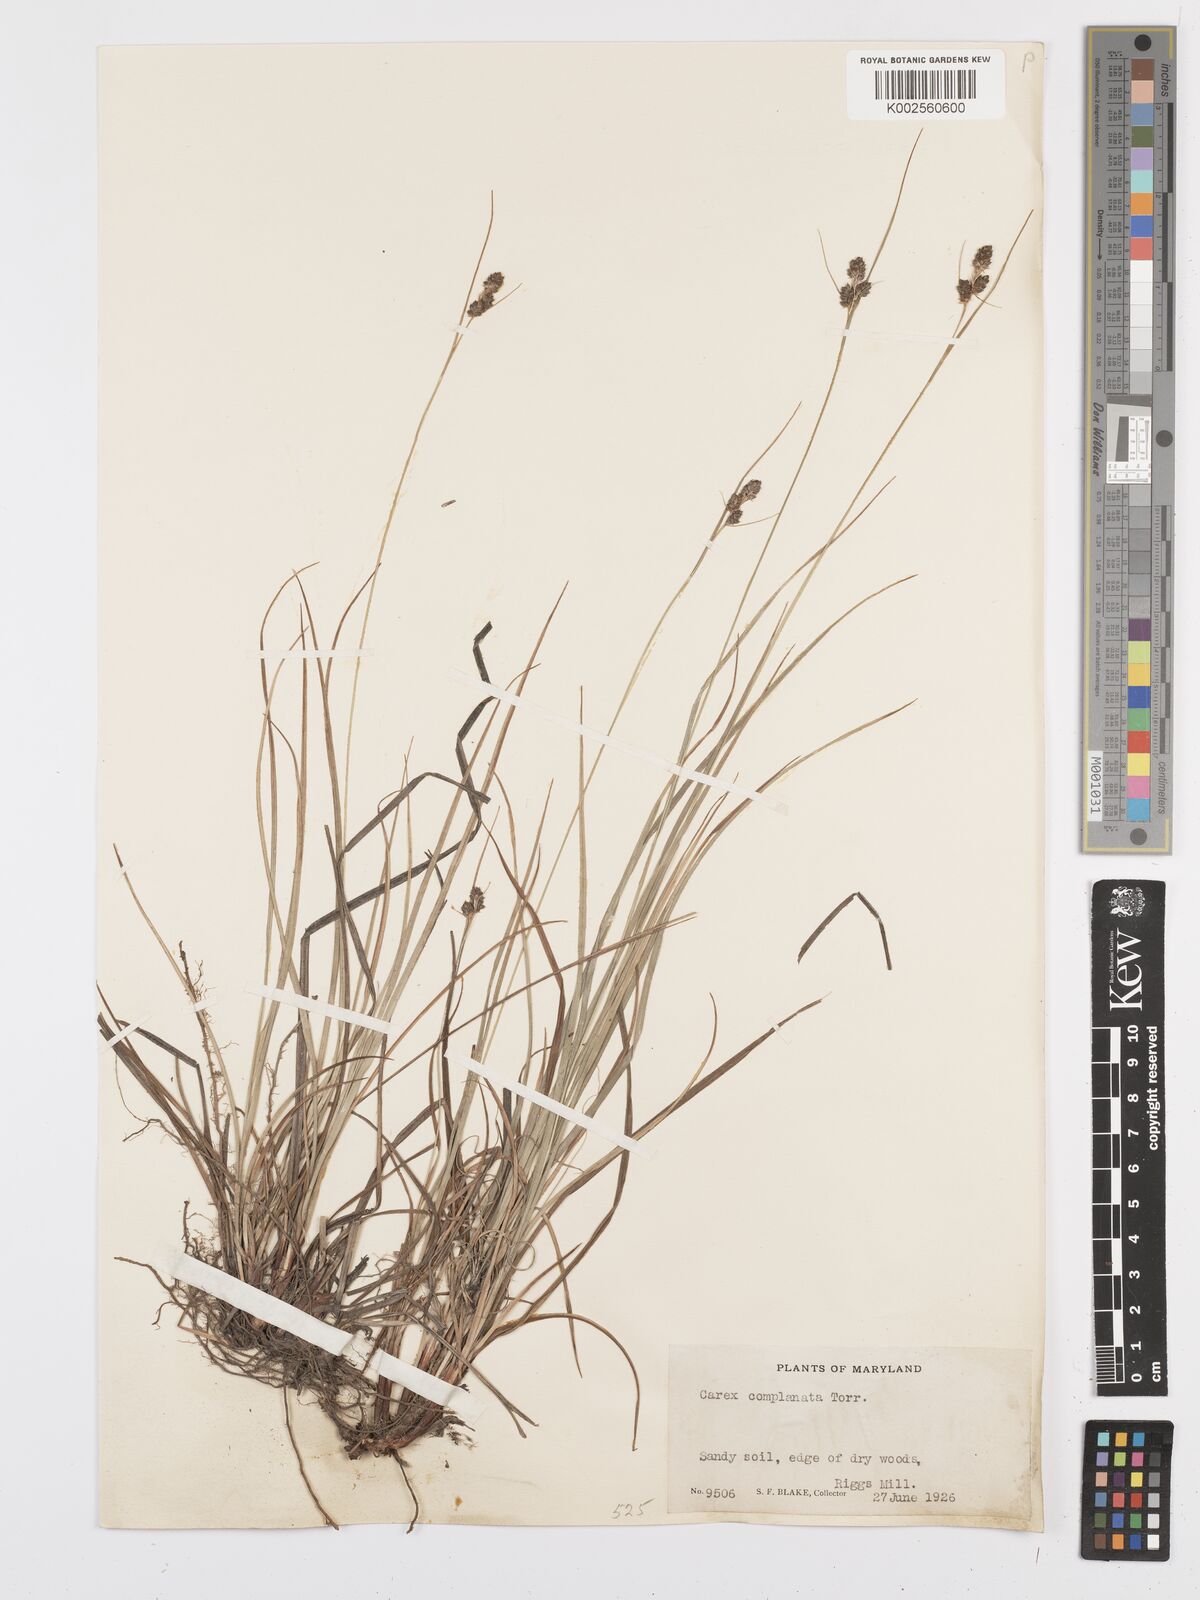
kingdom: Plantae
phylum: Tracheophyta
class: Liliopsida
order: Poales
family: Cyperaceae
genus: Carex
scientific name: Carex complanata
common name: Hirsute sedge
